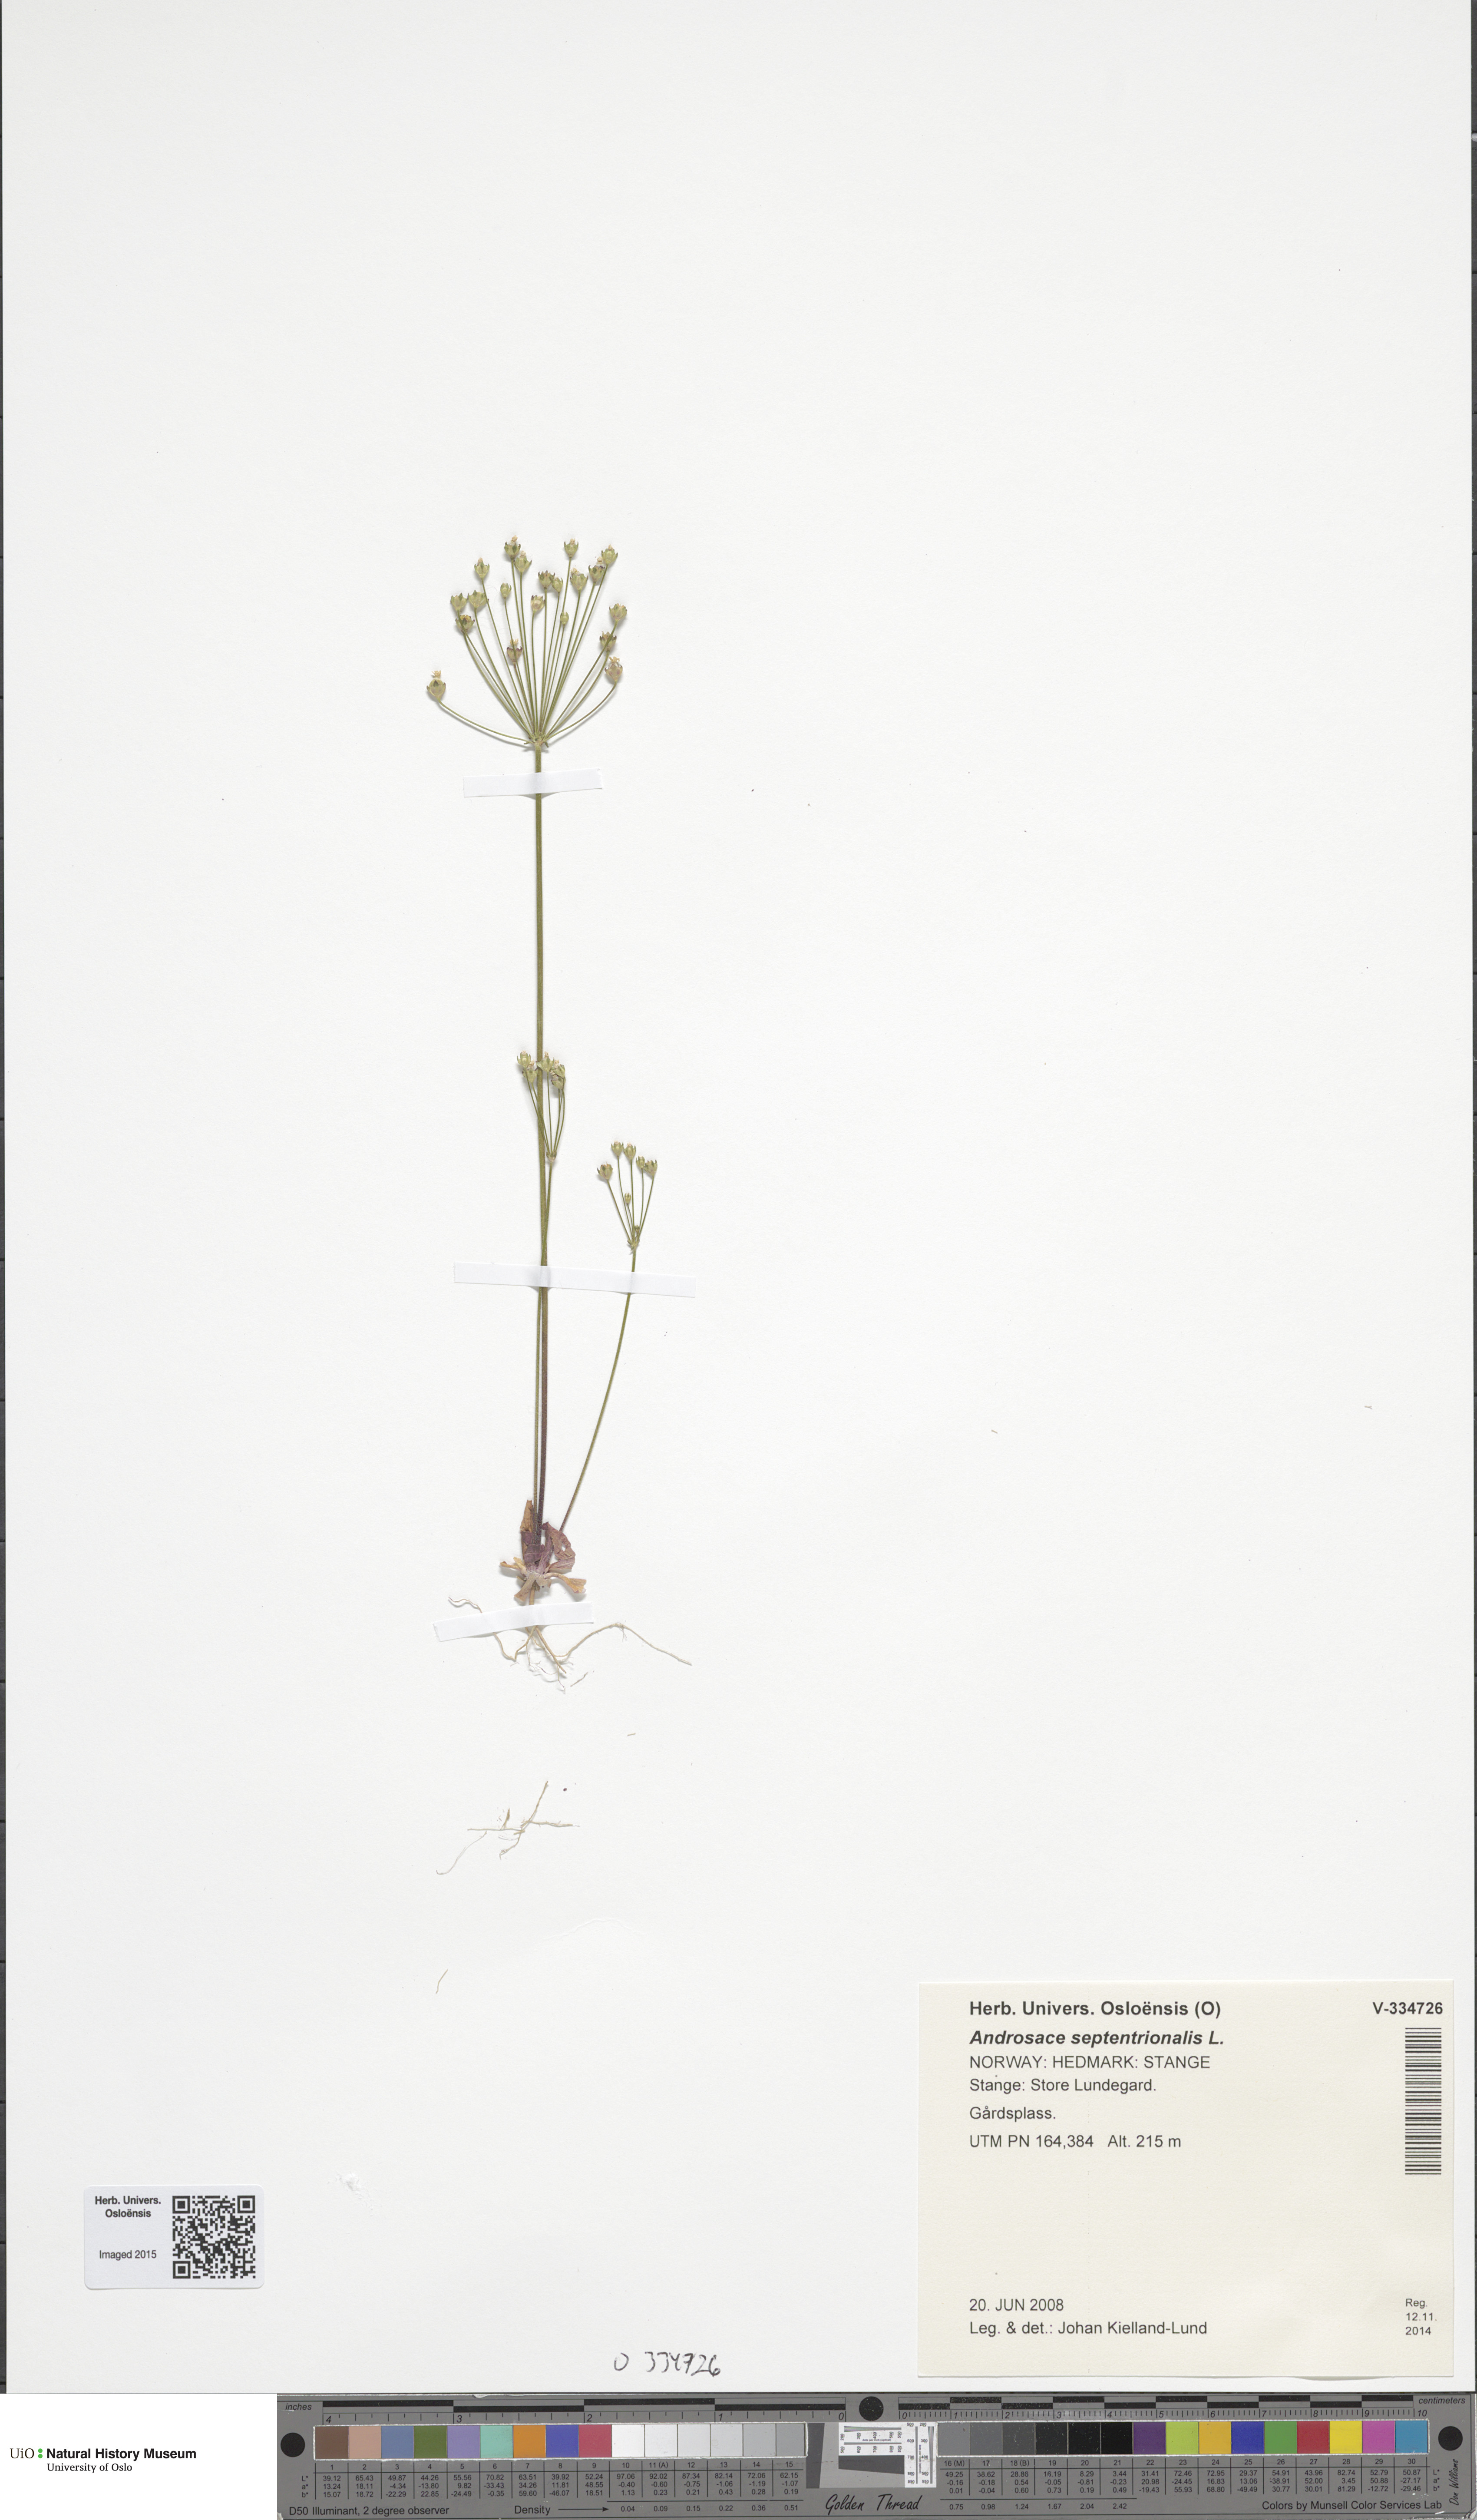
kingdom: Plantae
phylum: Tracheophyta
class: Magnoliopsida
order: Ericales
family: Primulaceae
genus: Androsace
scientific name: Androsace septentrionalis
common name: Hairy northern fairy-candelabra
